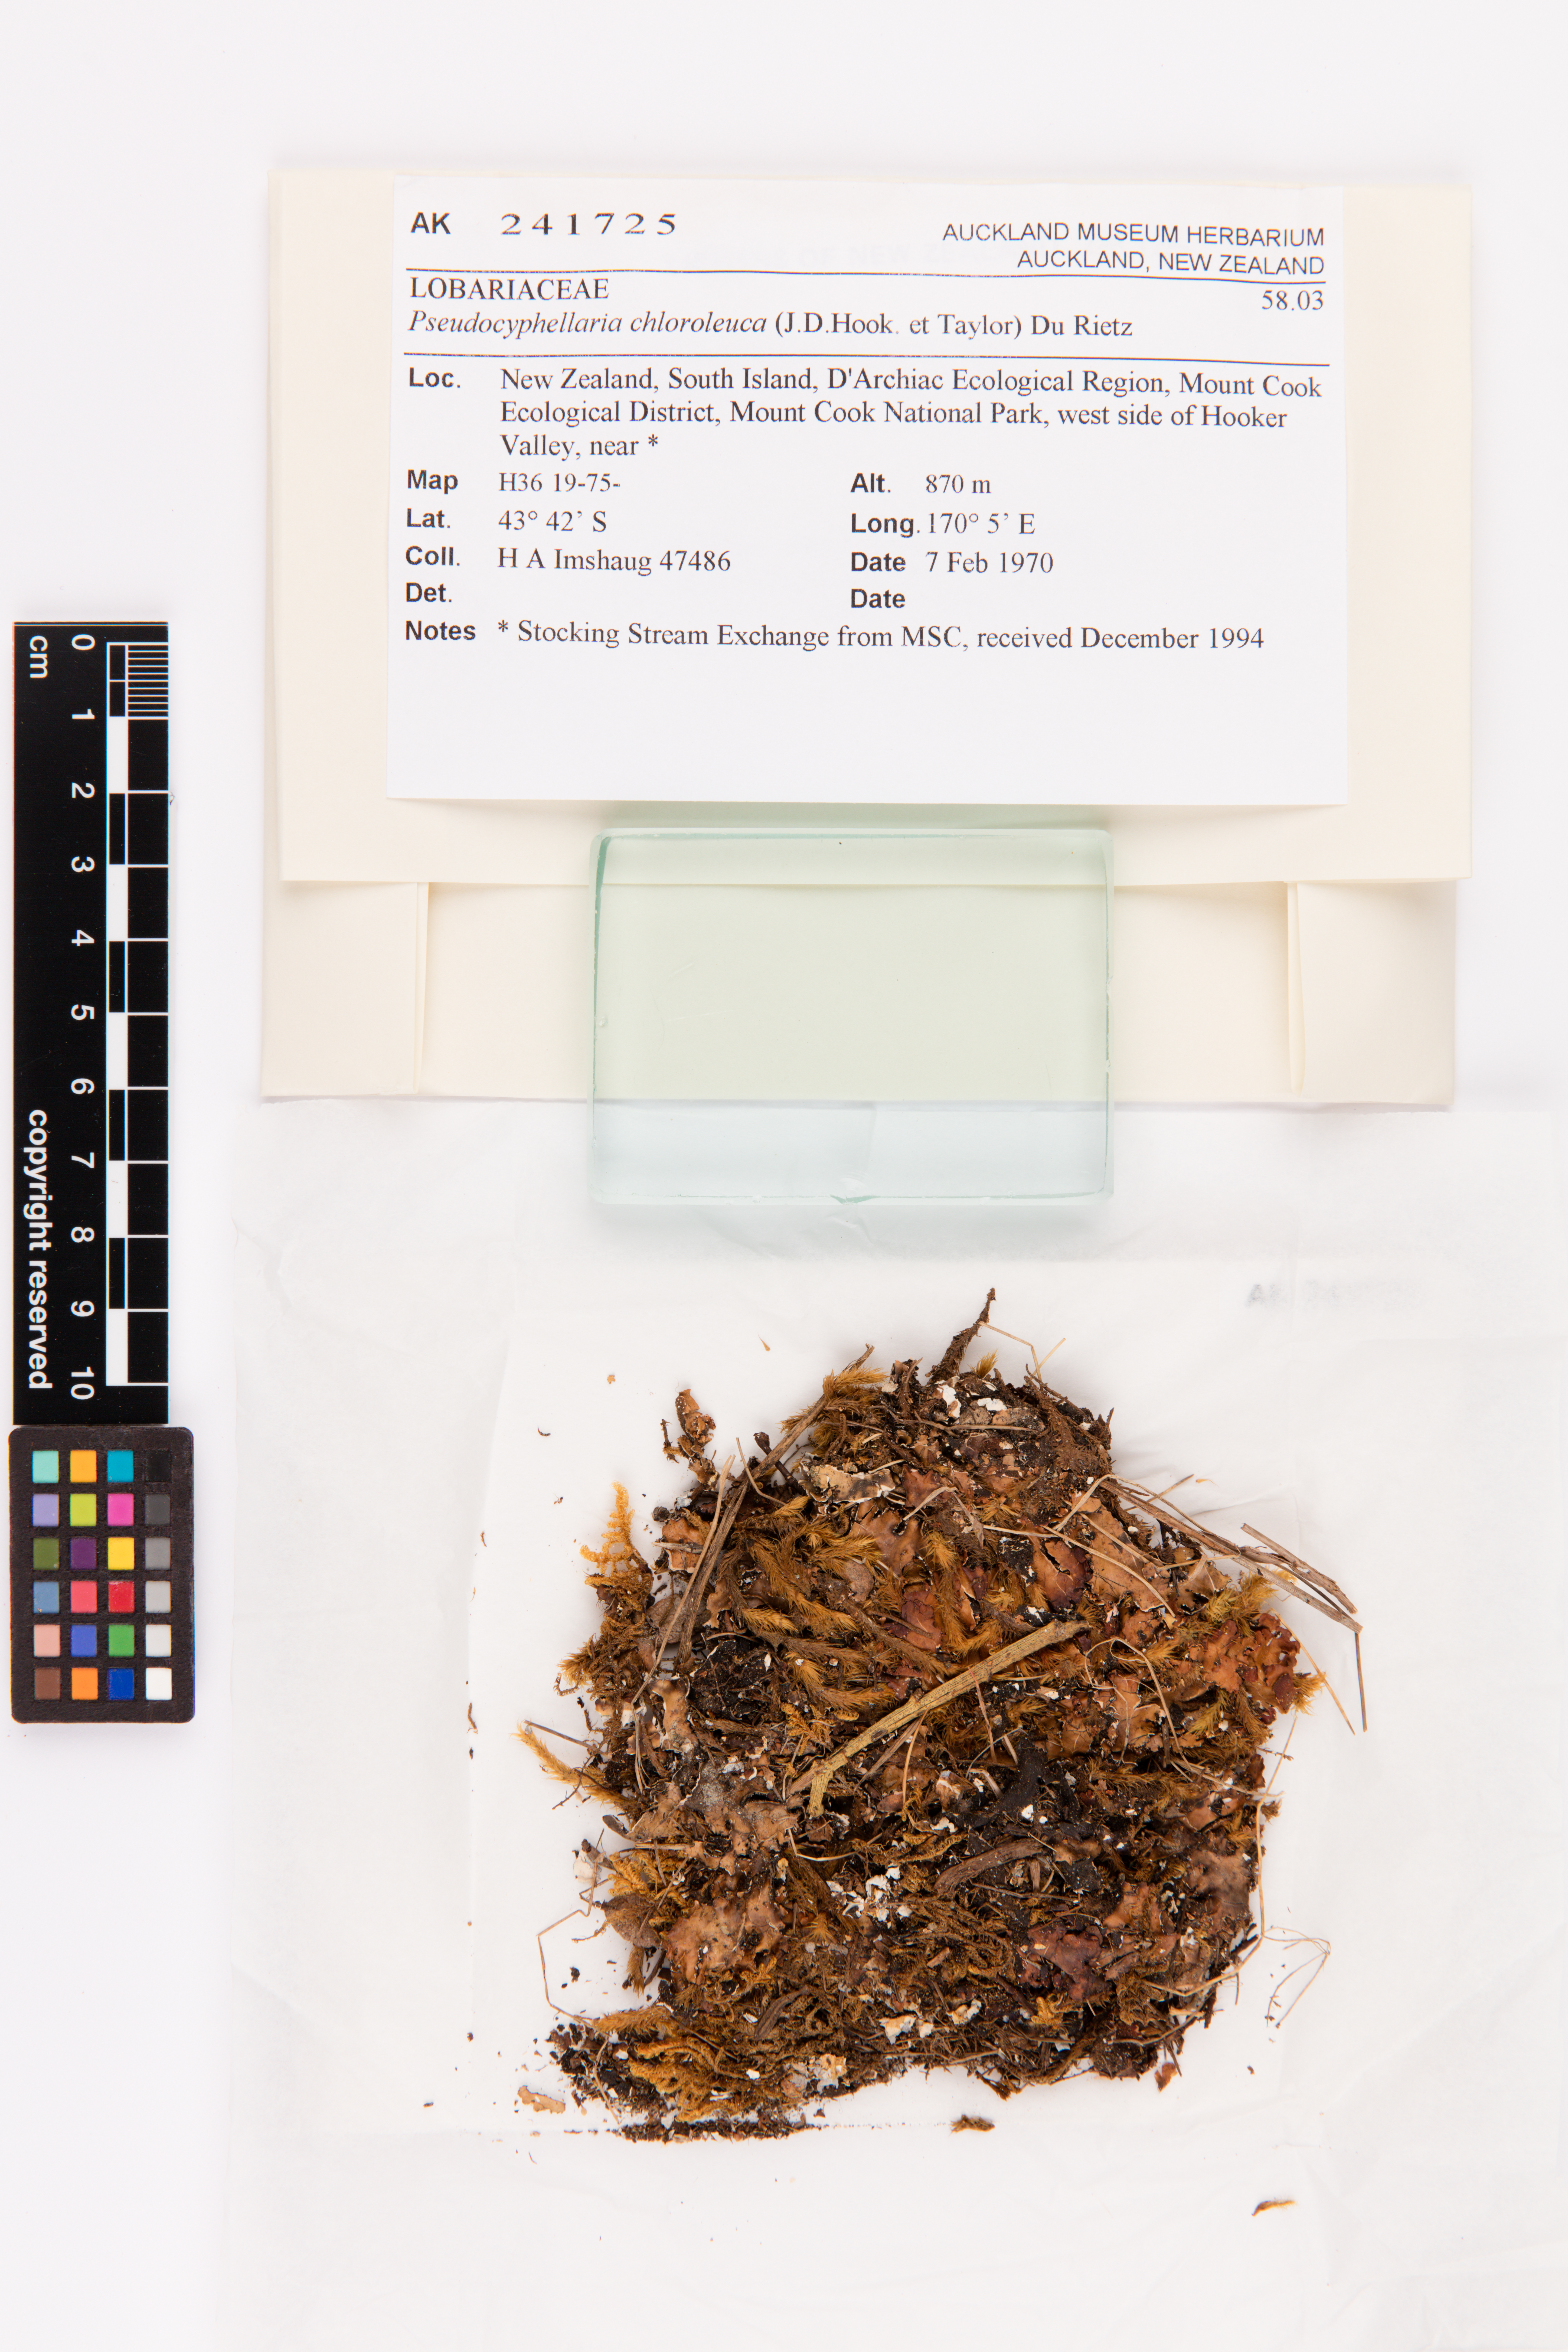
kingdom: Fungi
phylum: Ascomycota
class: Lecanoromycetes
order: Peltigerales
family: Lobariaceae
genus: Pseudocyphellaria
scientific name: Pseudocyphellaria chloroleuca
